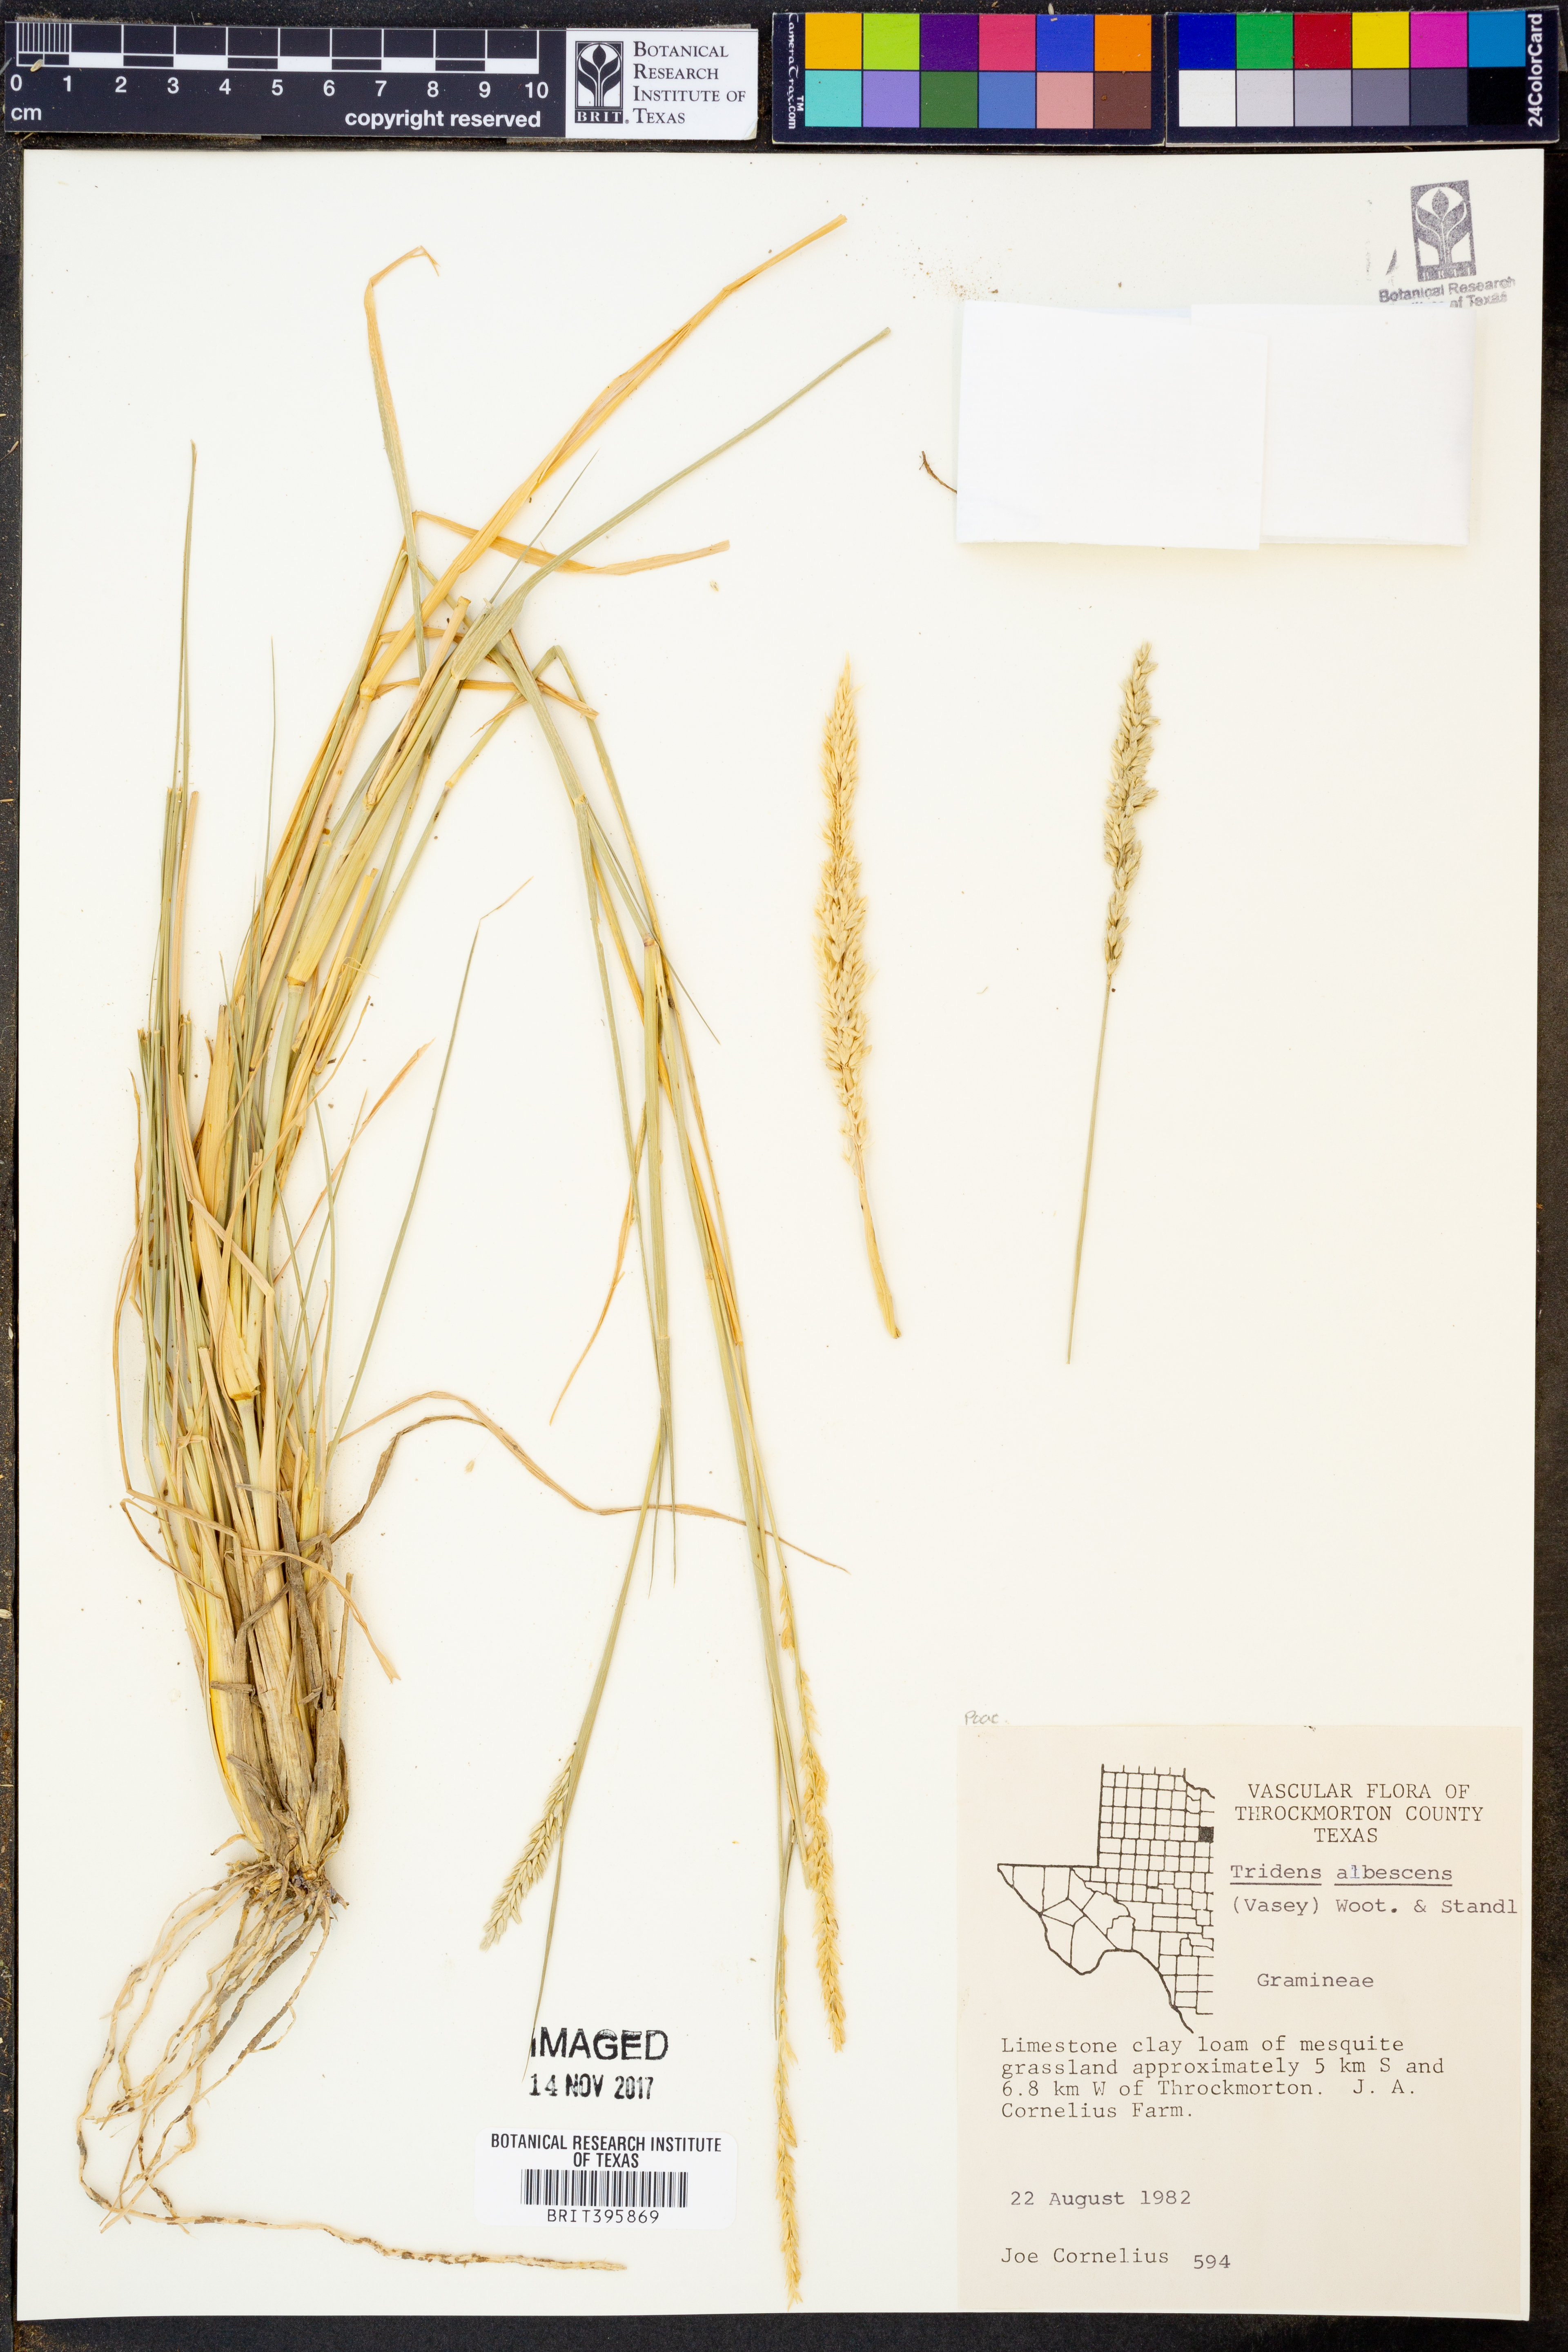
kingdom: Plantae
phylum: Tracheophyta
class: Liliopsida
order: Poales
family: Poaceae
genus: Tridens
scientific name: Tridens albescens
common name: White tridens
